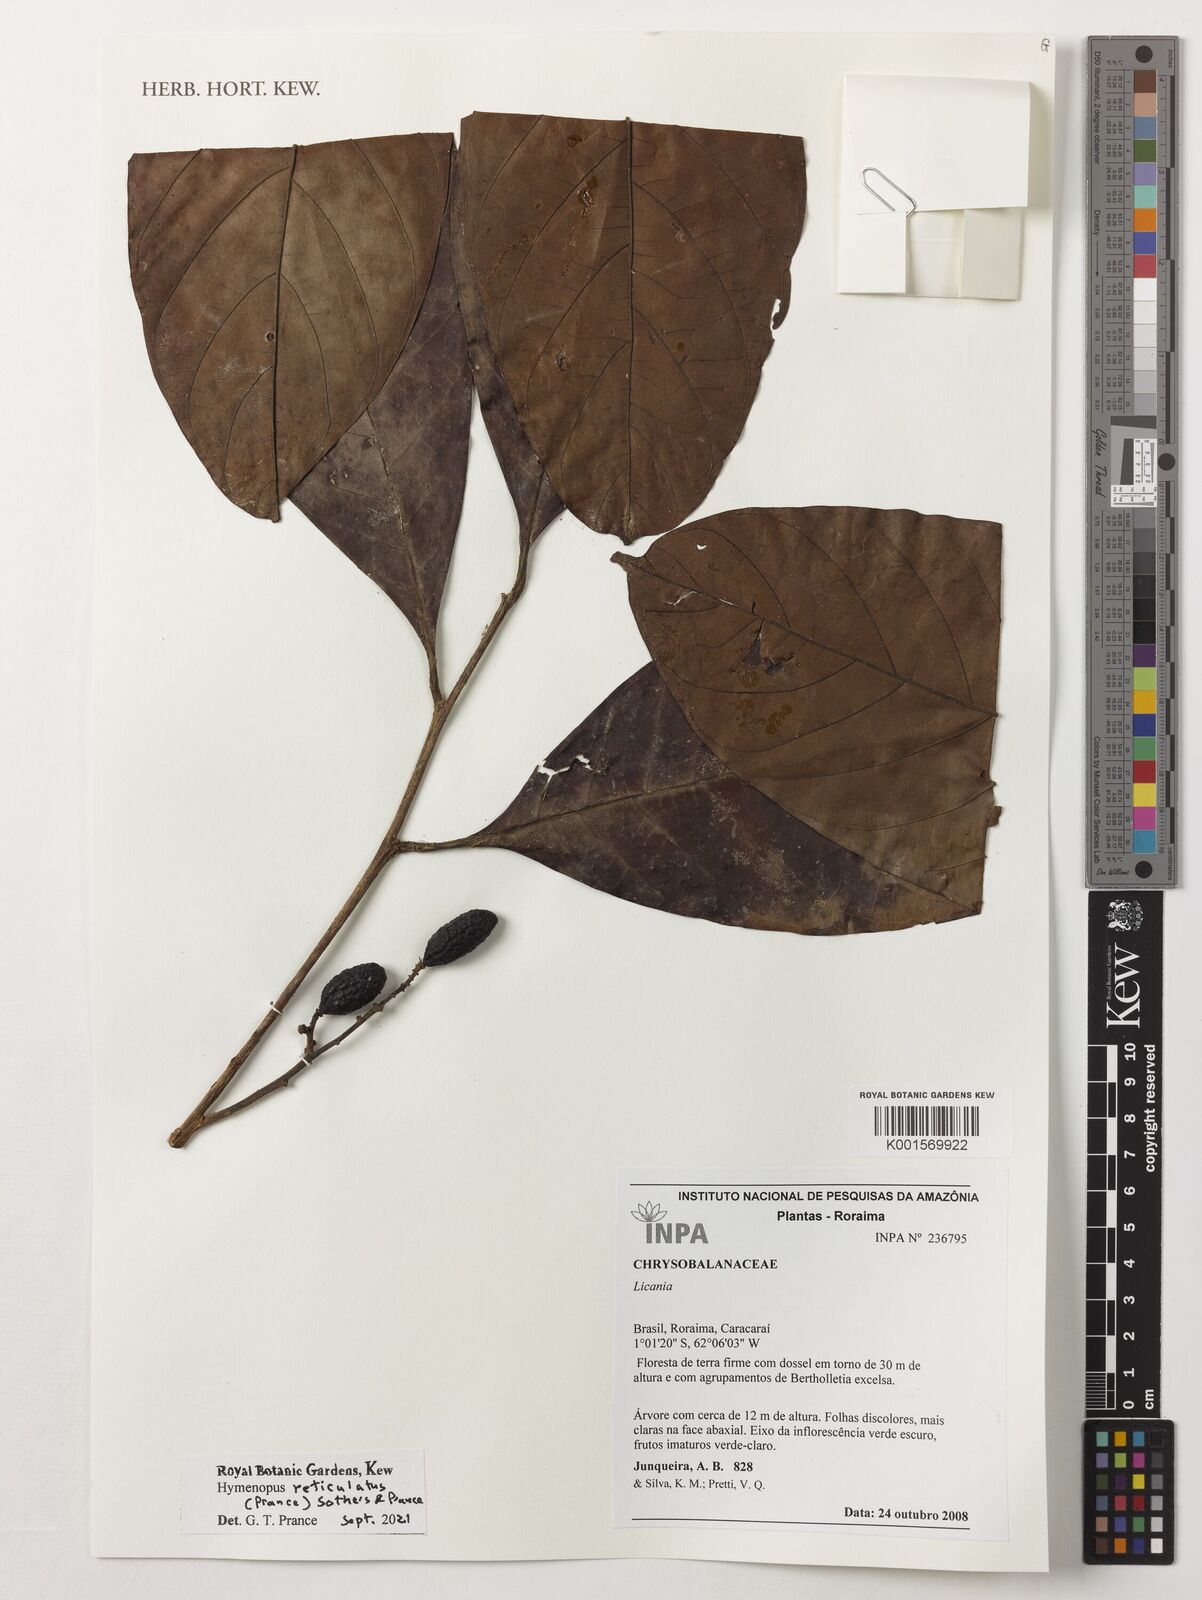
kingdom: Plantae
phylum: Tracheophyta
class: Magnoliopsida
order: Malpighiales
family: Chrysobalanaceae
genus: Hymenopus
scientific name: Hymenopus reticulatus
